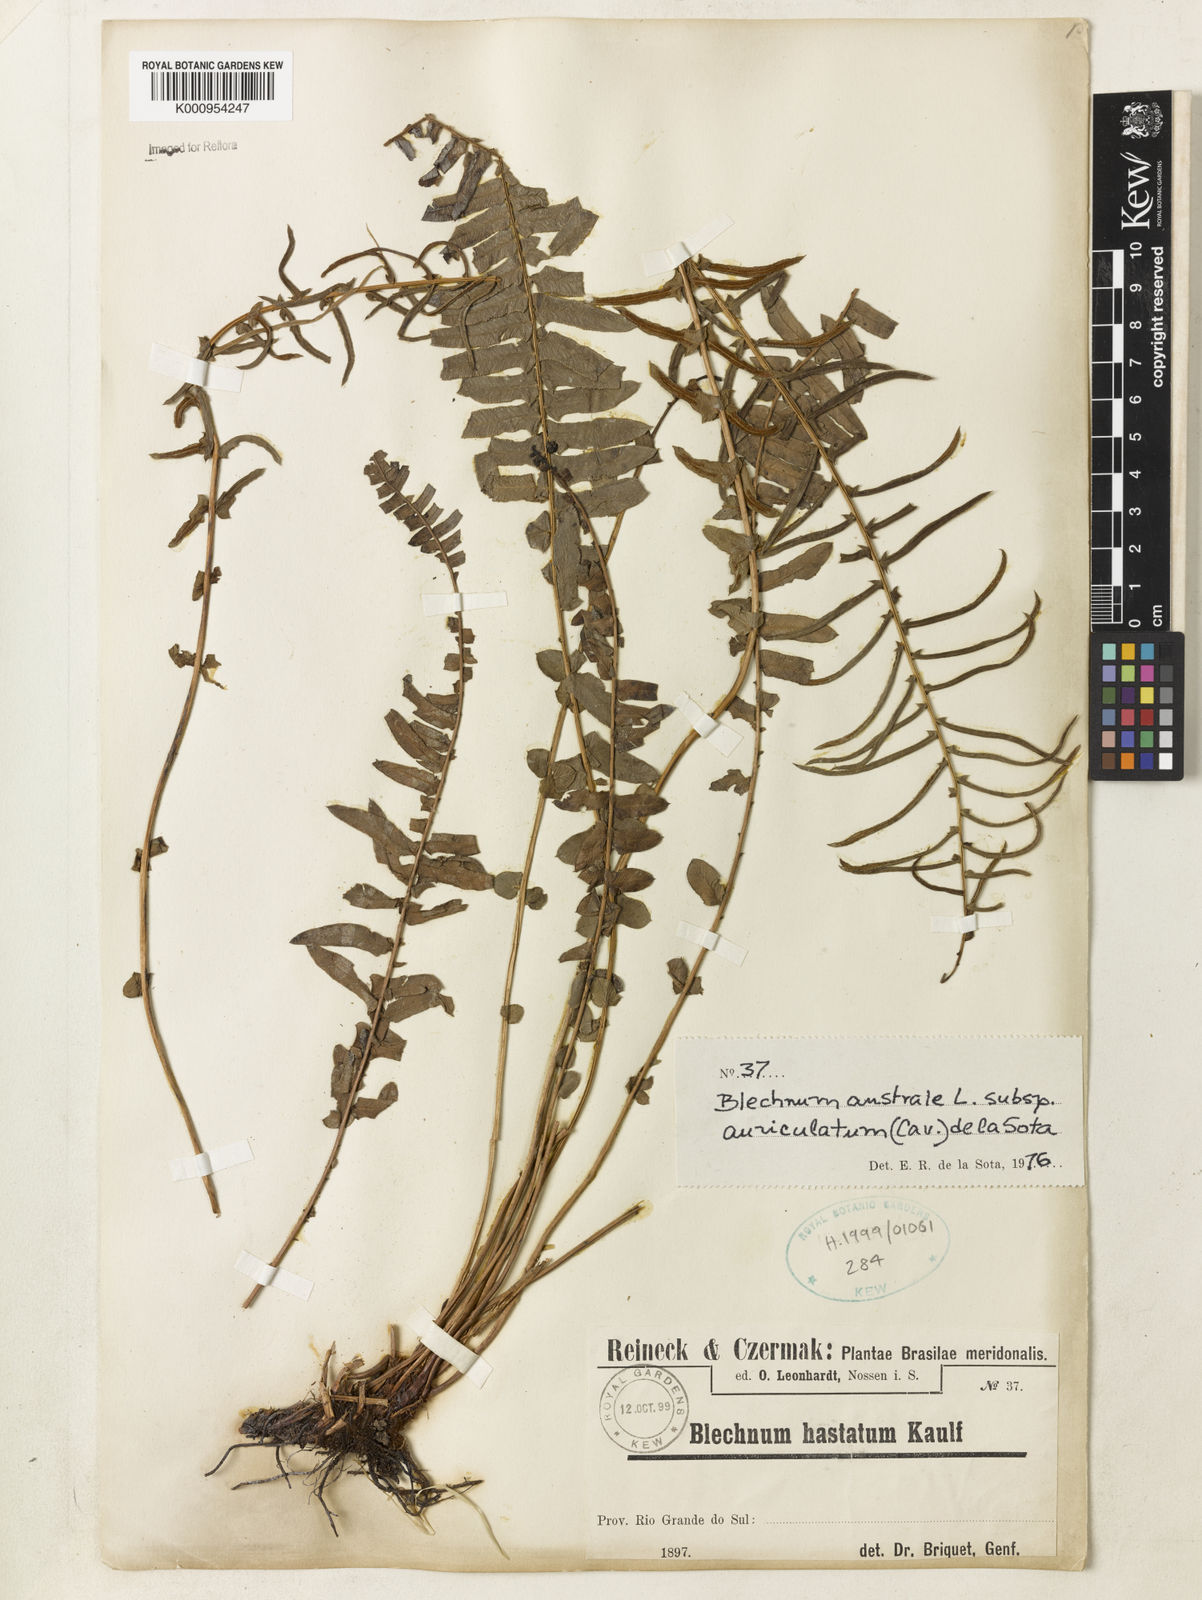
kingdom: Plantae
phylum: Tracheophyta
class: Polypodiopsida
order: Polypodiales
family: Blechnaceae
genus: Blechnum
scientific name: Blechnum australe
